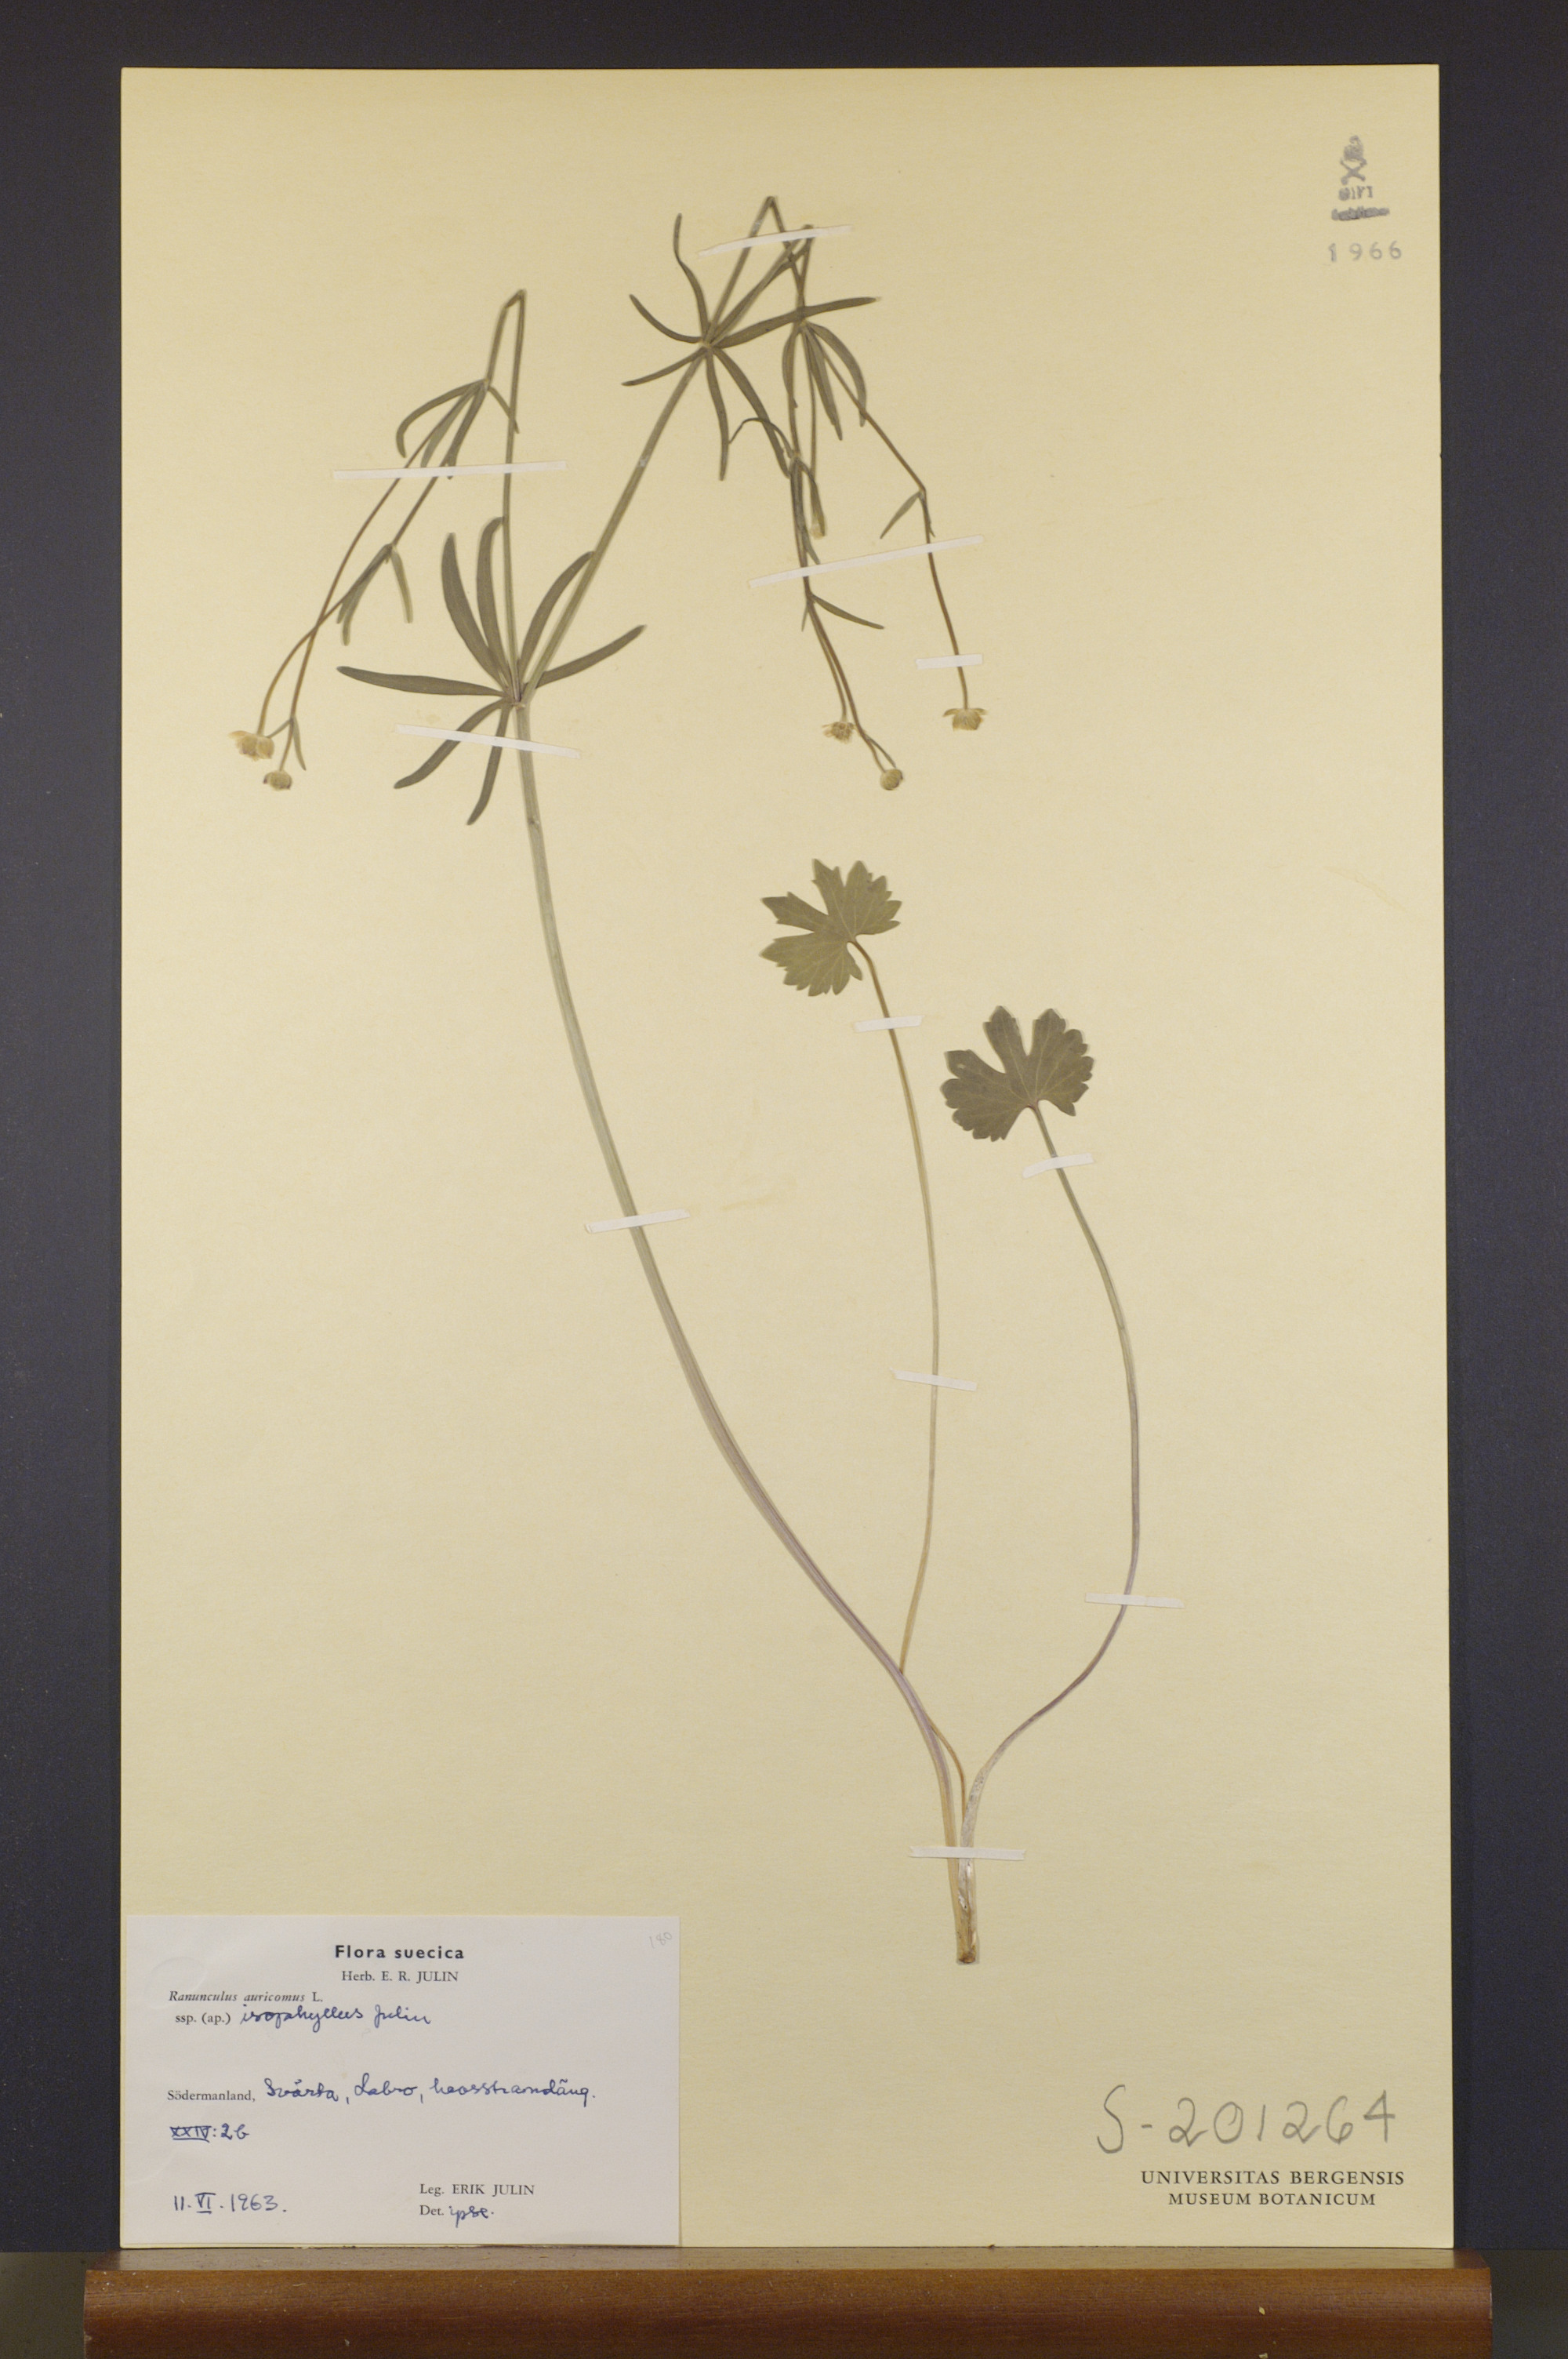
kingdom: Plantae
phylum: Tracheophyta
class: Magnoliopsida
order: Ranunculales
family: Ranunculaceae
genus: Ranunculus
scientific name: Ranunculus isophyllus
